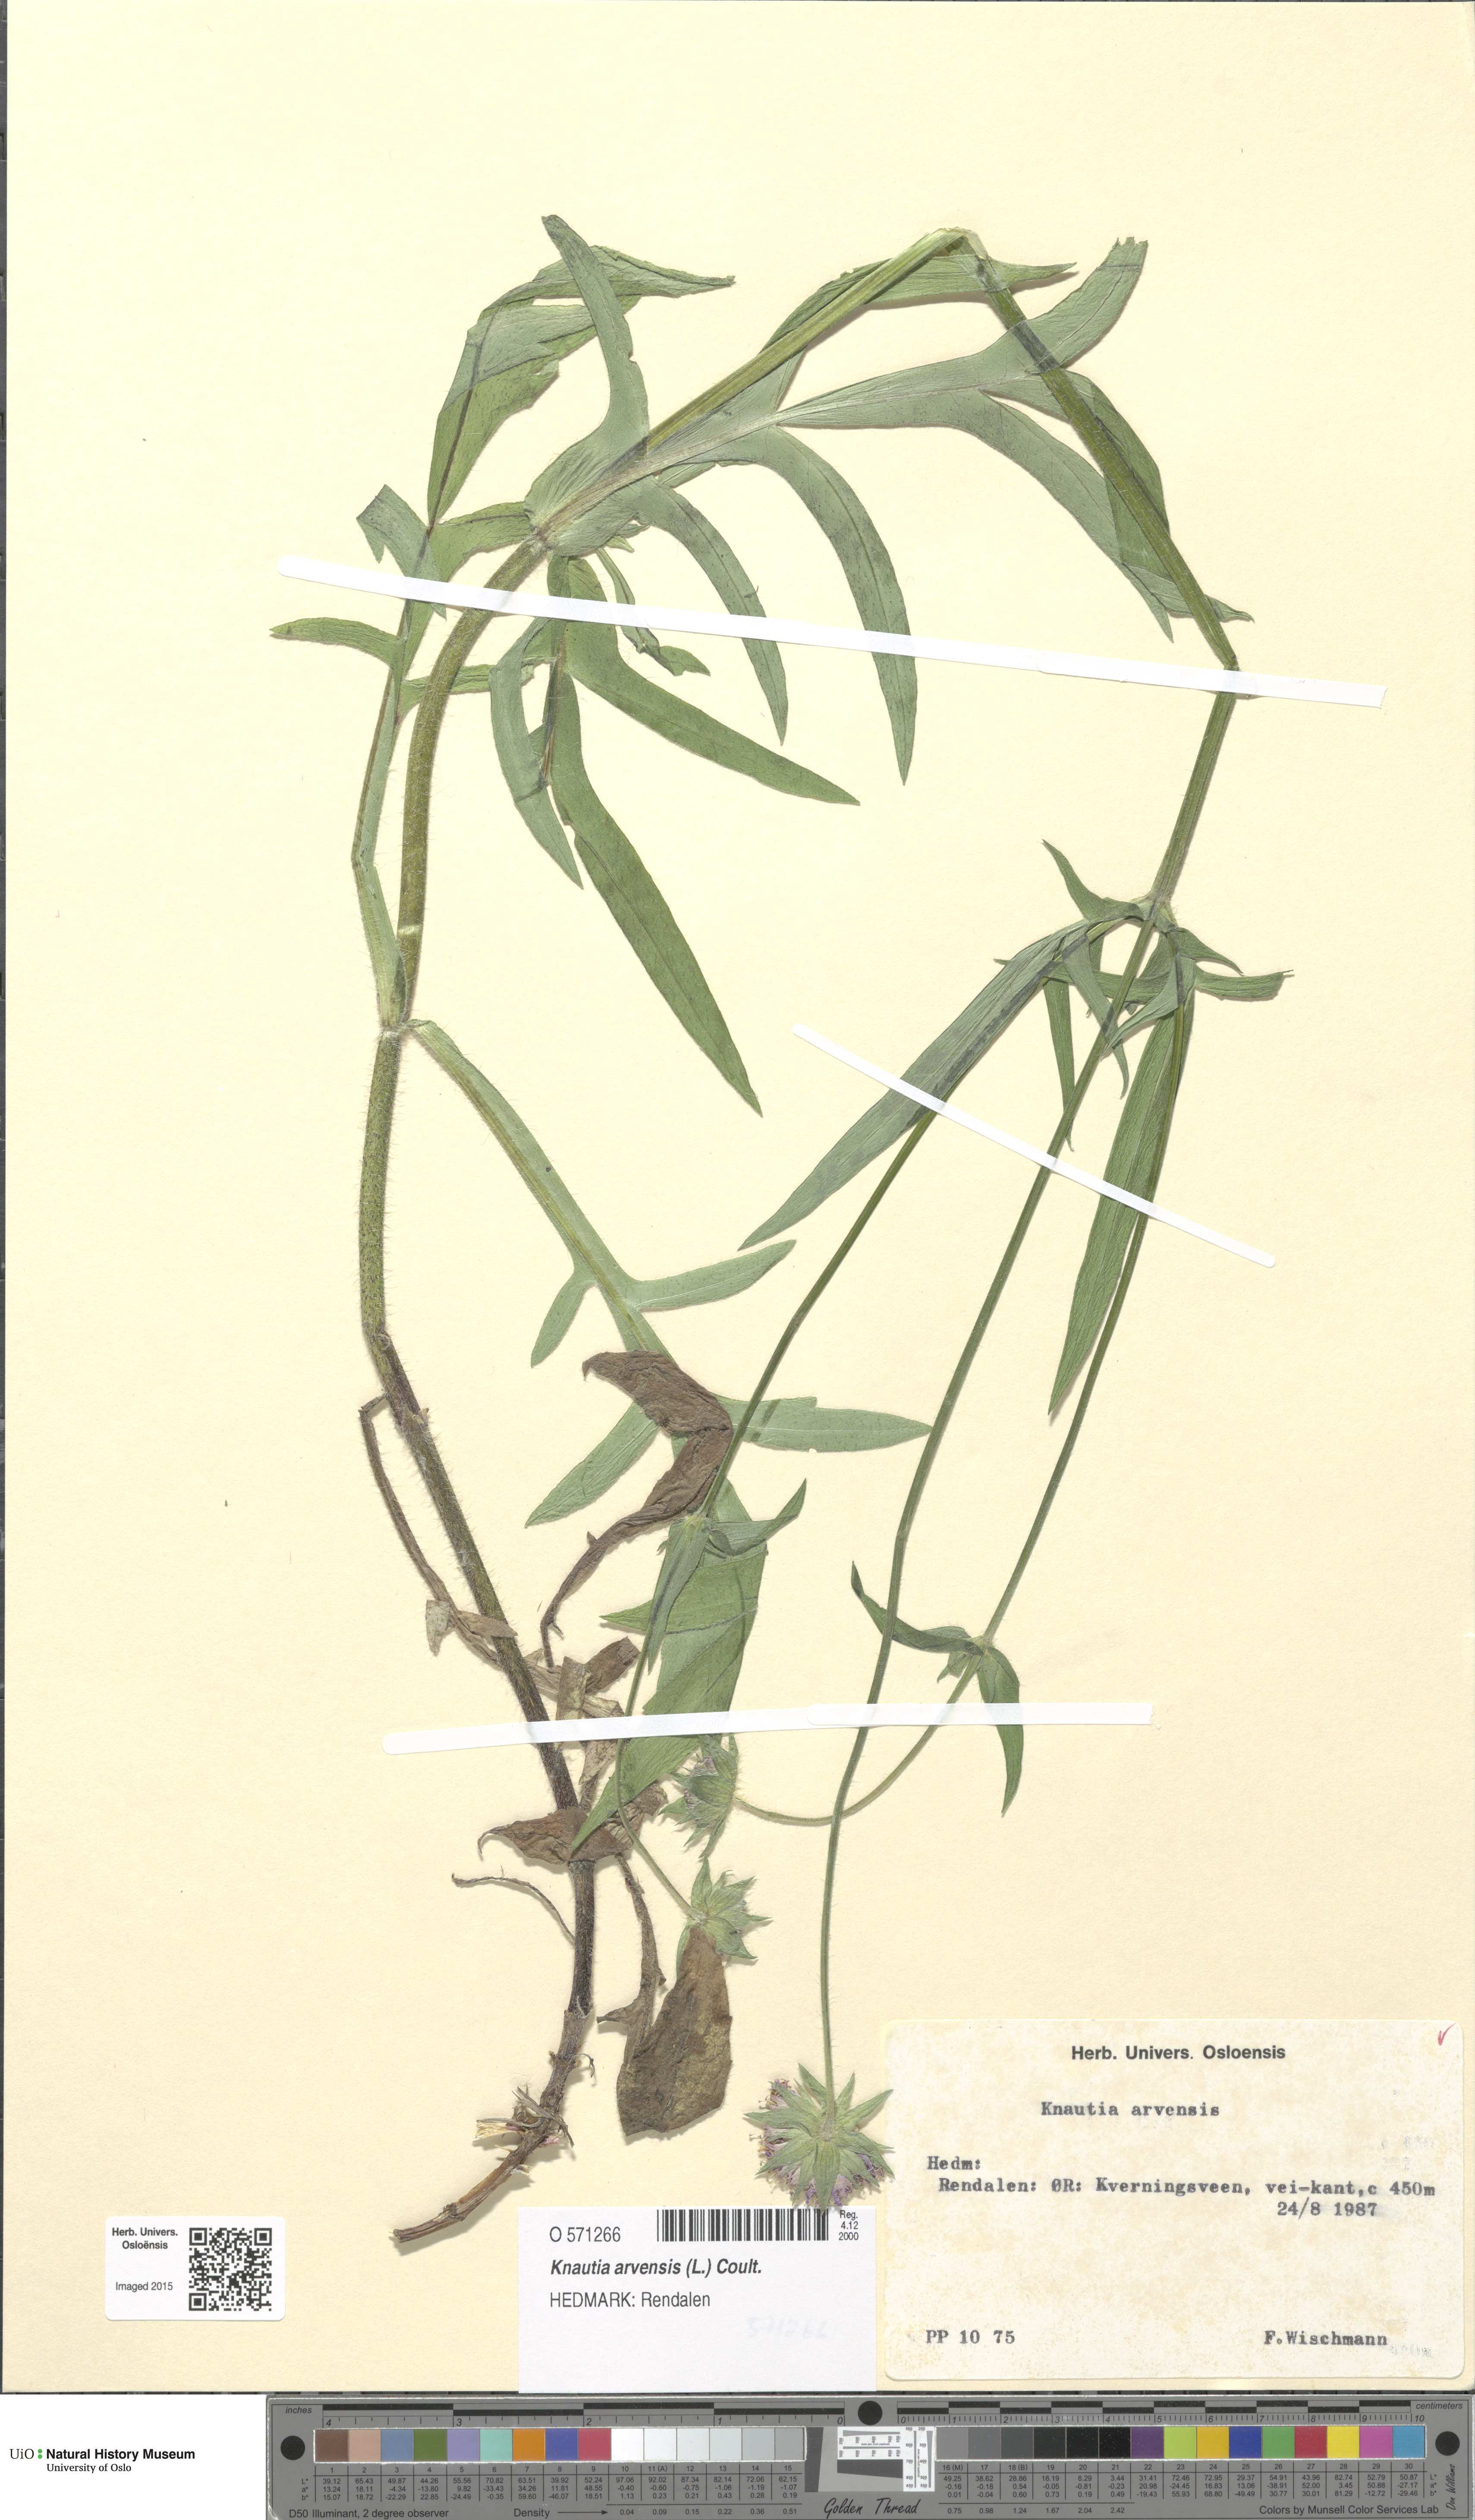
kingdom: Plantae
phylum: Tracheophyta
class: Magnoliopsida
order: Dipsacales
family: Caprifoliaceae
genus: Knautia
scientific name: Knautia arvensis
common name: Field scabiosa
